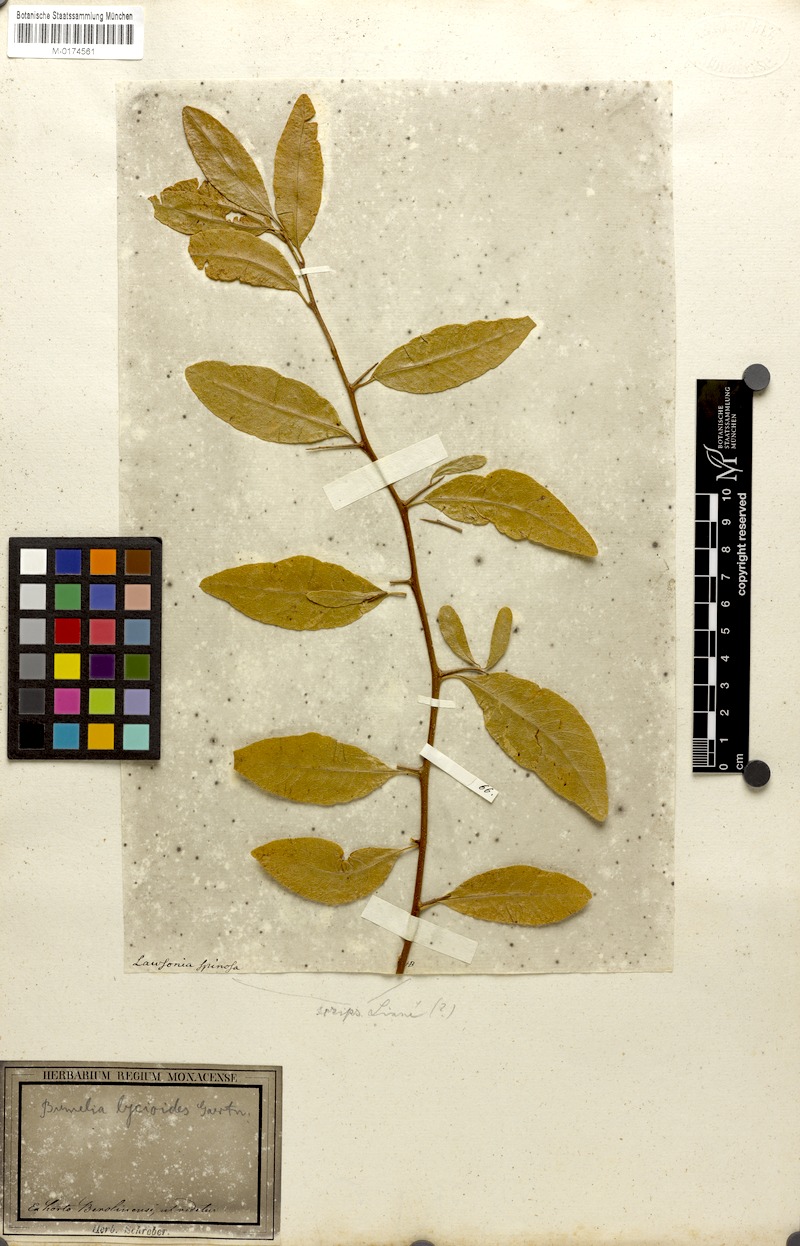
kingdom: Plantae
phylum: Tracheophyta
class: Magnoliopsida
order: Ericales
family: Sapotaceae
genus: Sideroxylon
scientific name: Sideroxylon lycioides
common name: Buckthorn bumelia
